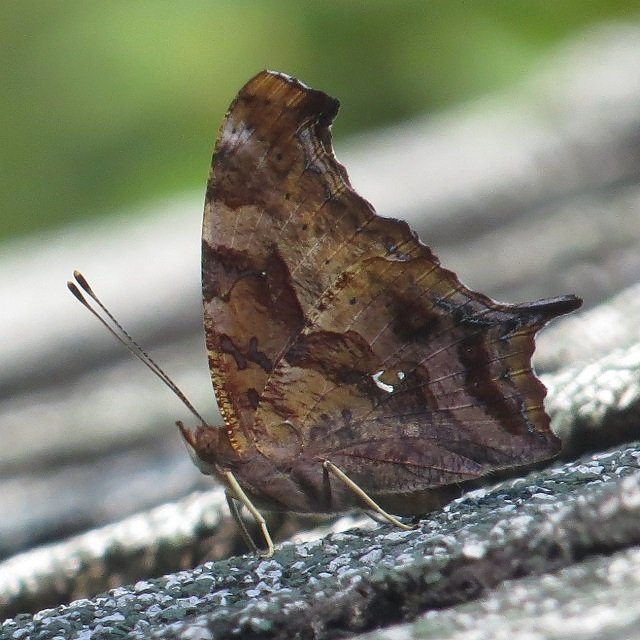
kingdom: Animalia
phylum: Arthropoda
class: Insecta
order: Lepidoptera
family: Nymphalidae
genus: Polygonia
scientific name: Polygonia interrogationis
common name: Question Mark
